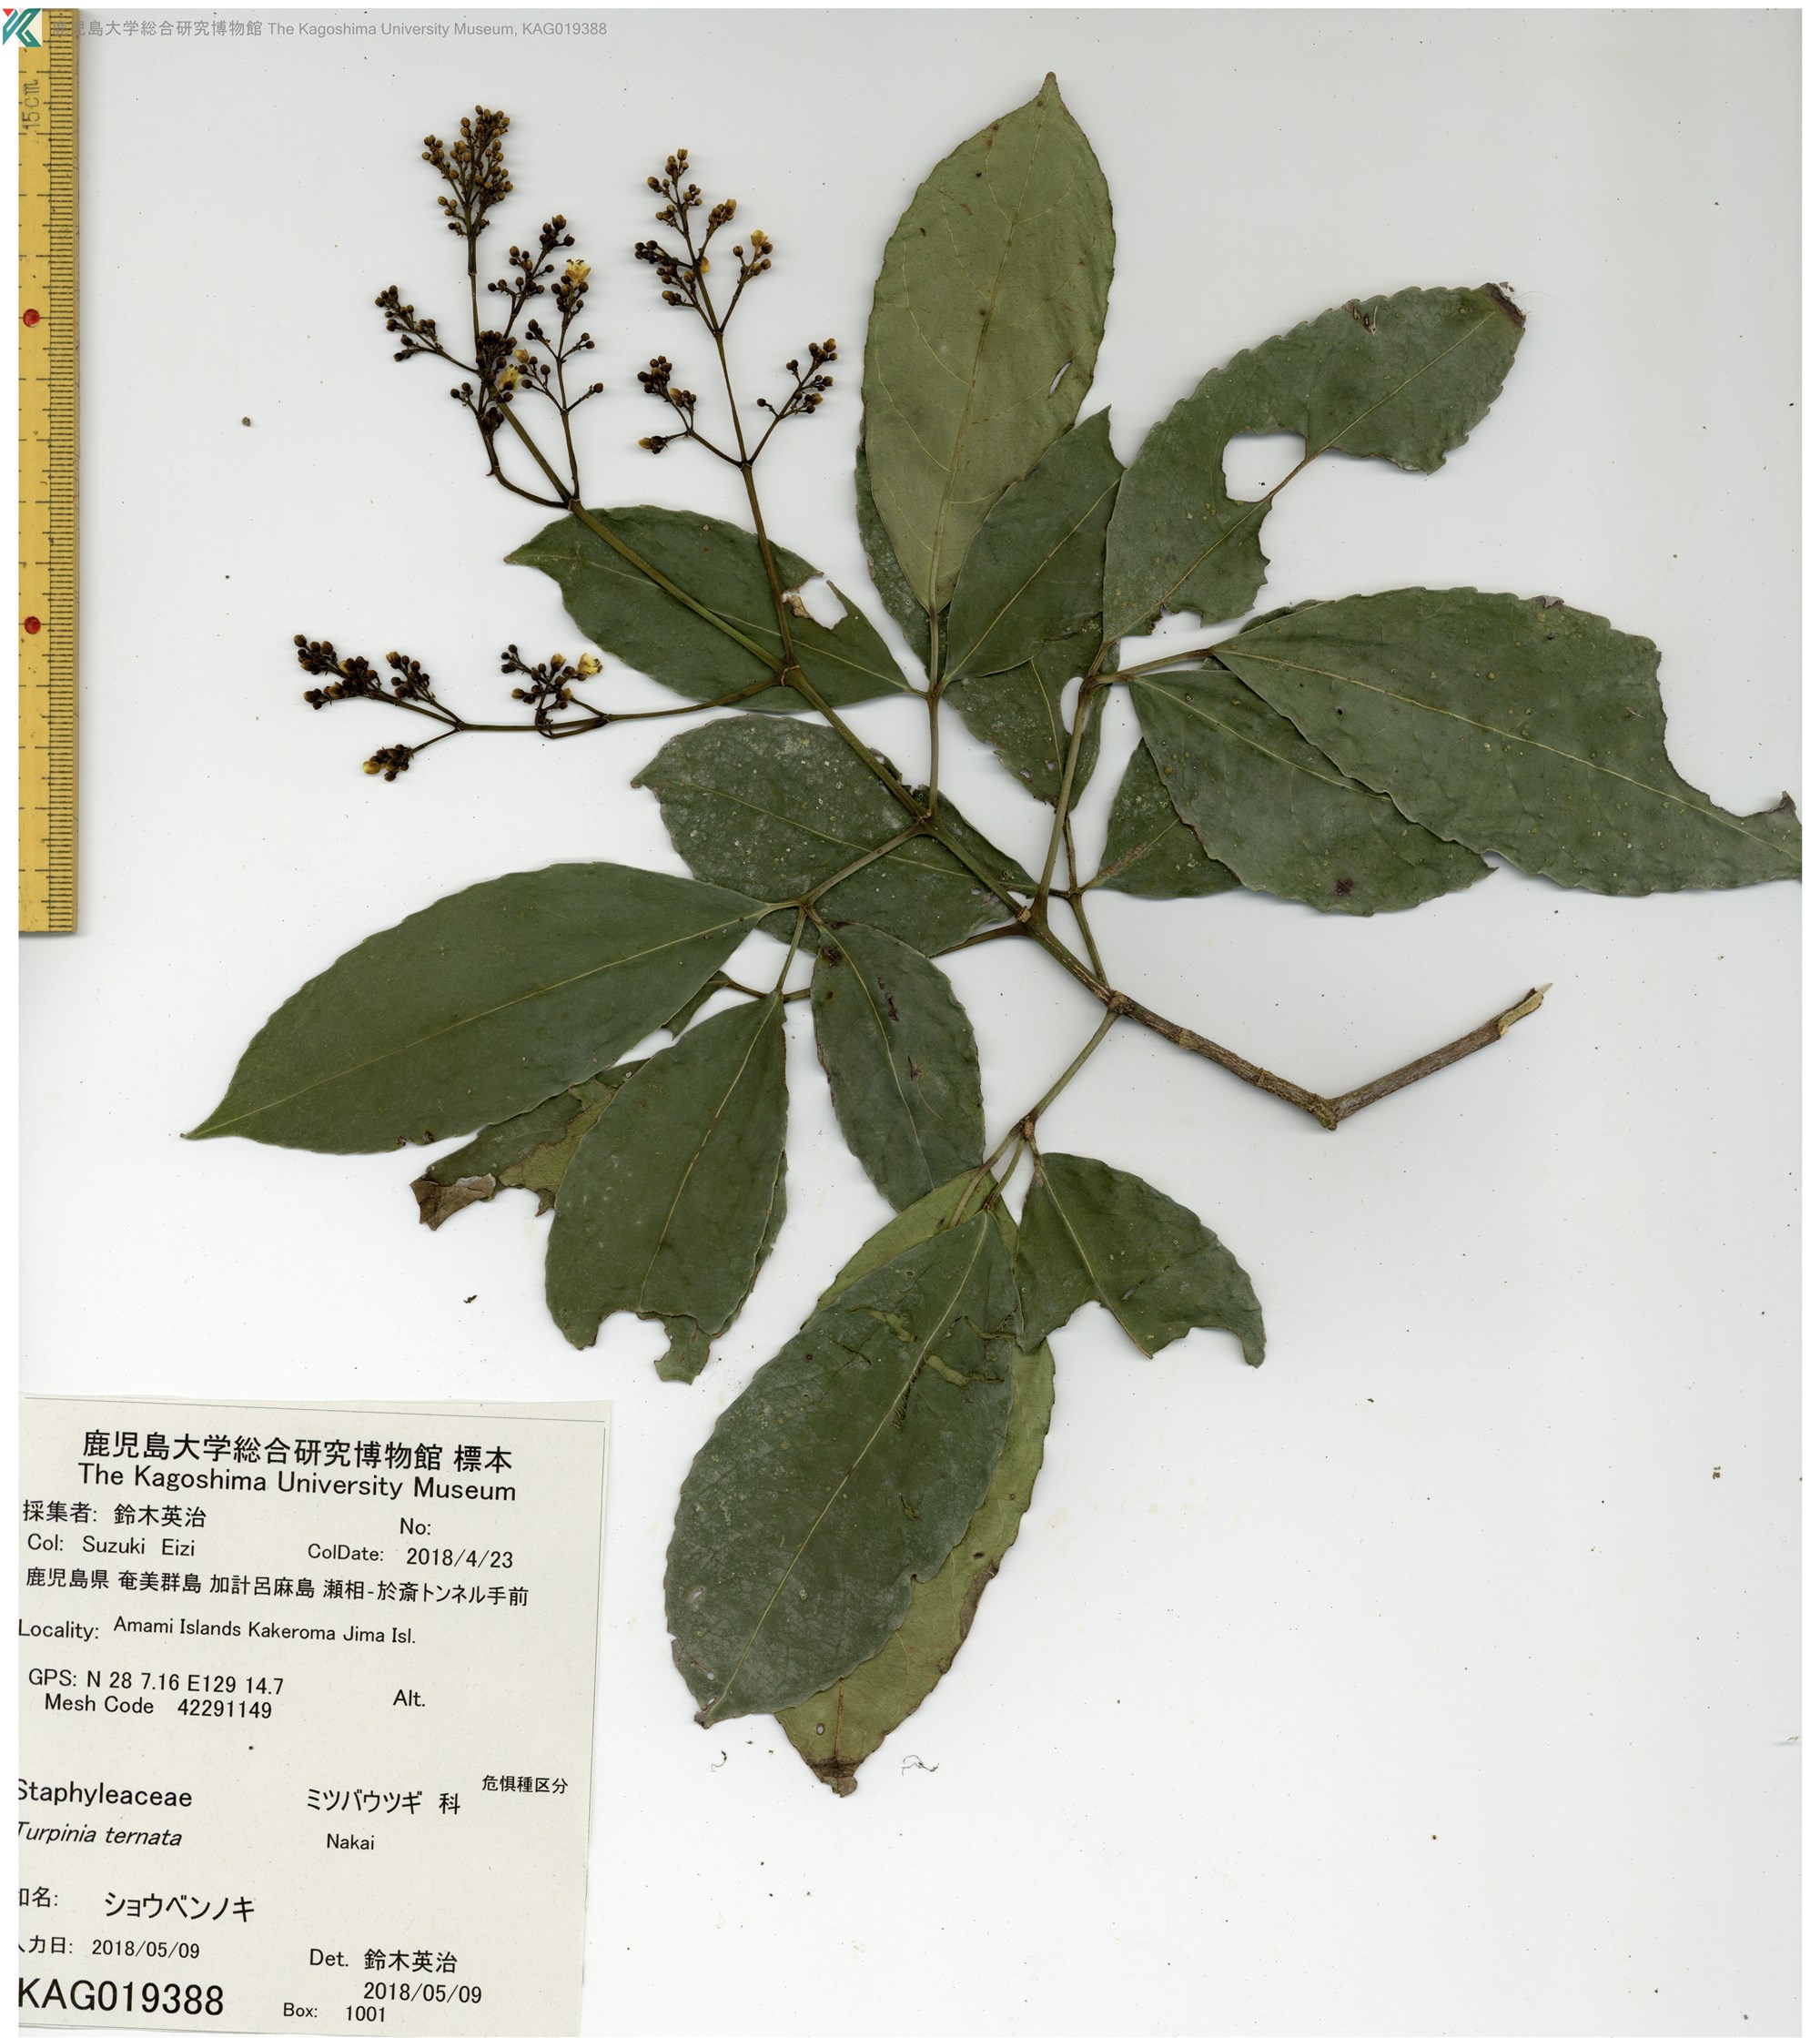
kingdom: Plantae
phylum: Tracheophyta
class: Magnoliopsida
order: Crossosomatales
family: Staphyleaceae
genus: Turpinia
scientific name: Turpinia ternata
